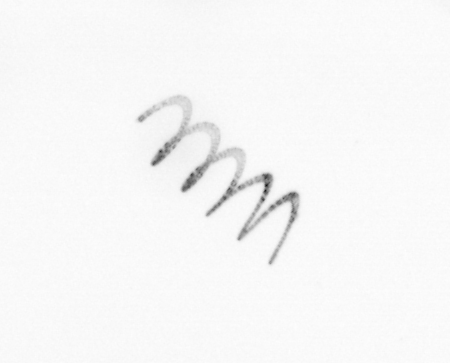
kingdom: Chromista
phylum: Ochrophyta
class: Bacillariophyceae
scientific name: Bacillariophyceae
